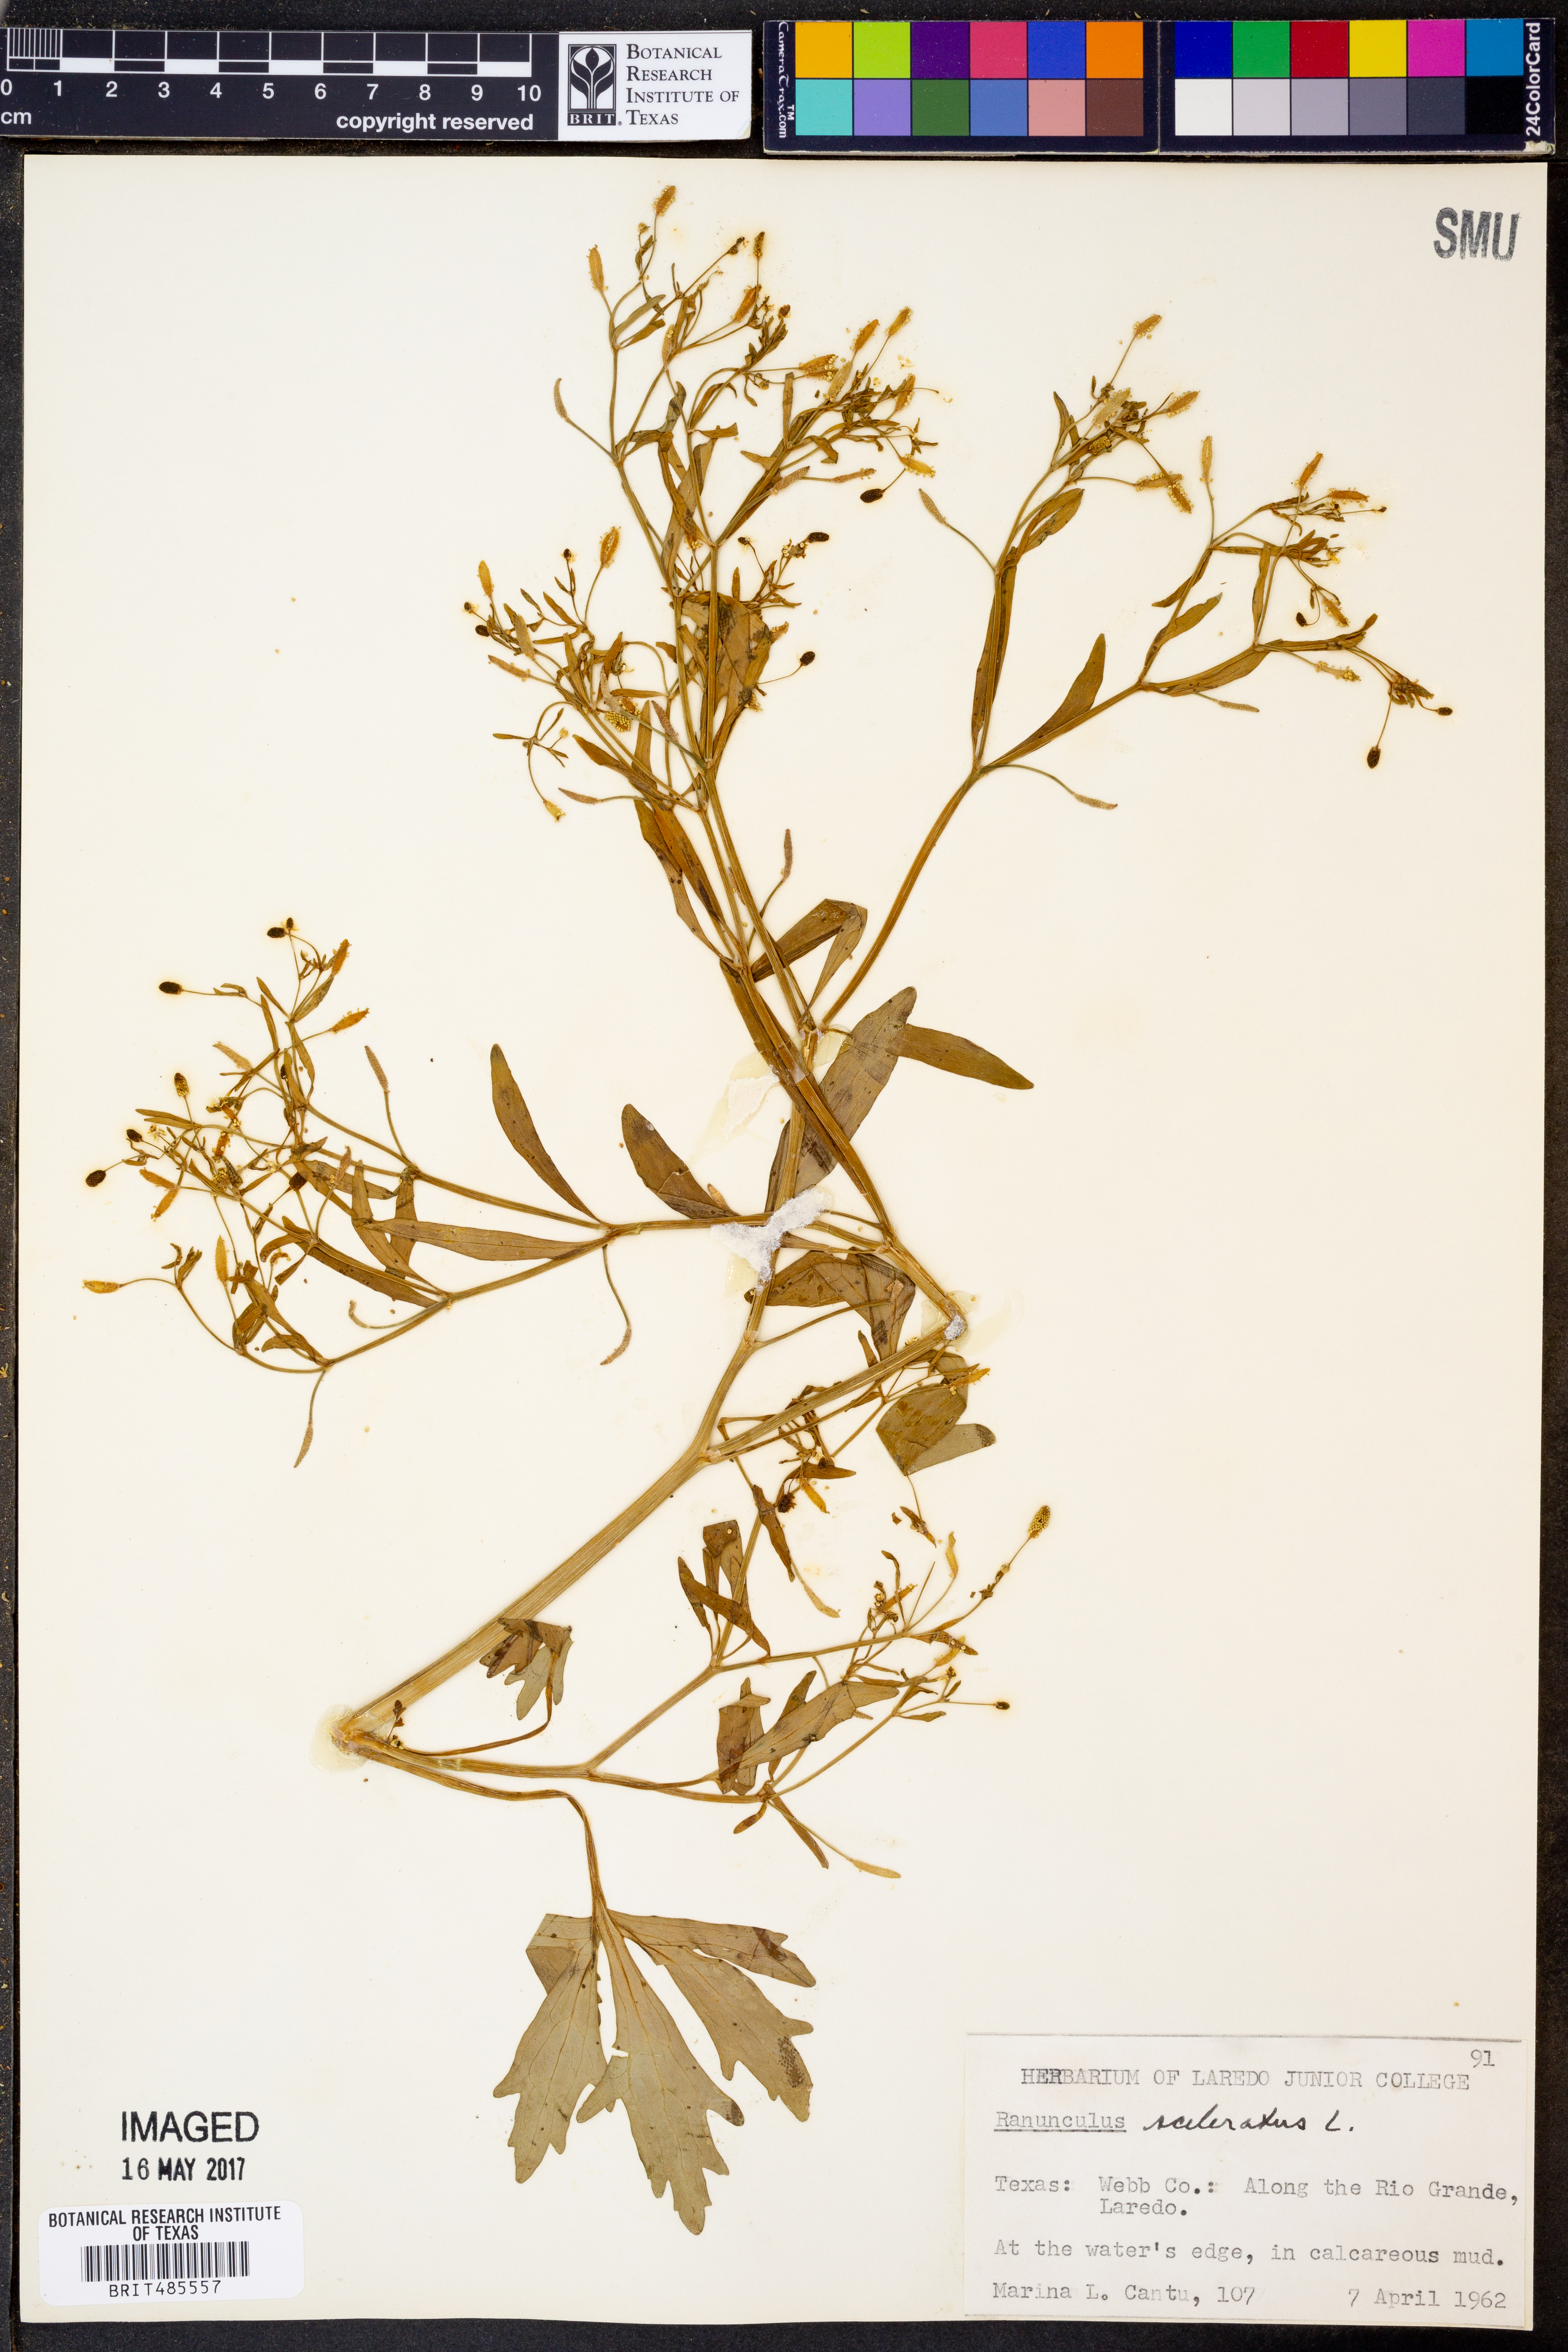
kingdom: Plantae
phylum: Tracheophyta
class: Magnoliopsida
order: Ranunculales
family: Ranunculaceae
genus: Ranunculus
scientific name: Ranunculus sceleratus
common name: Celery-leaved buttercup
